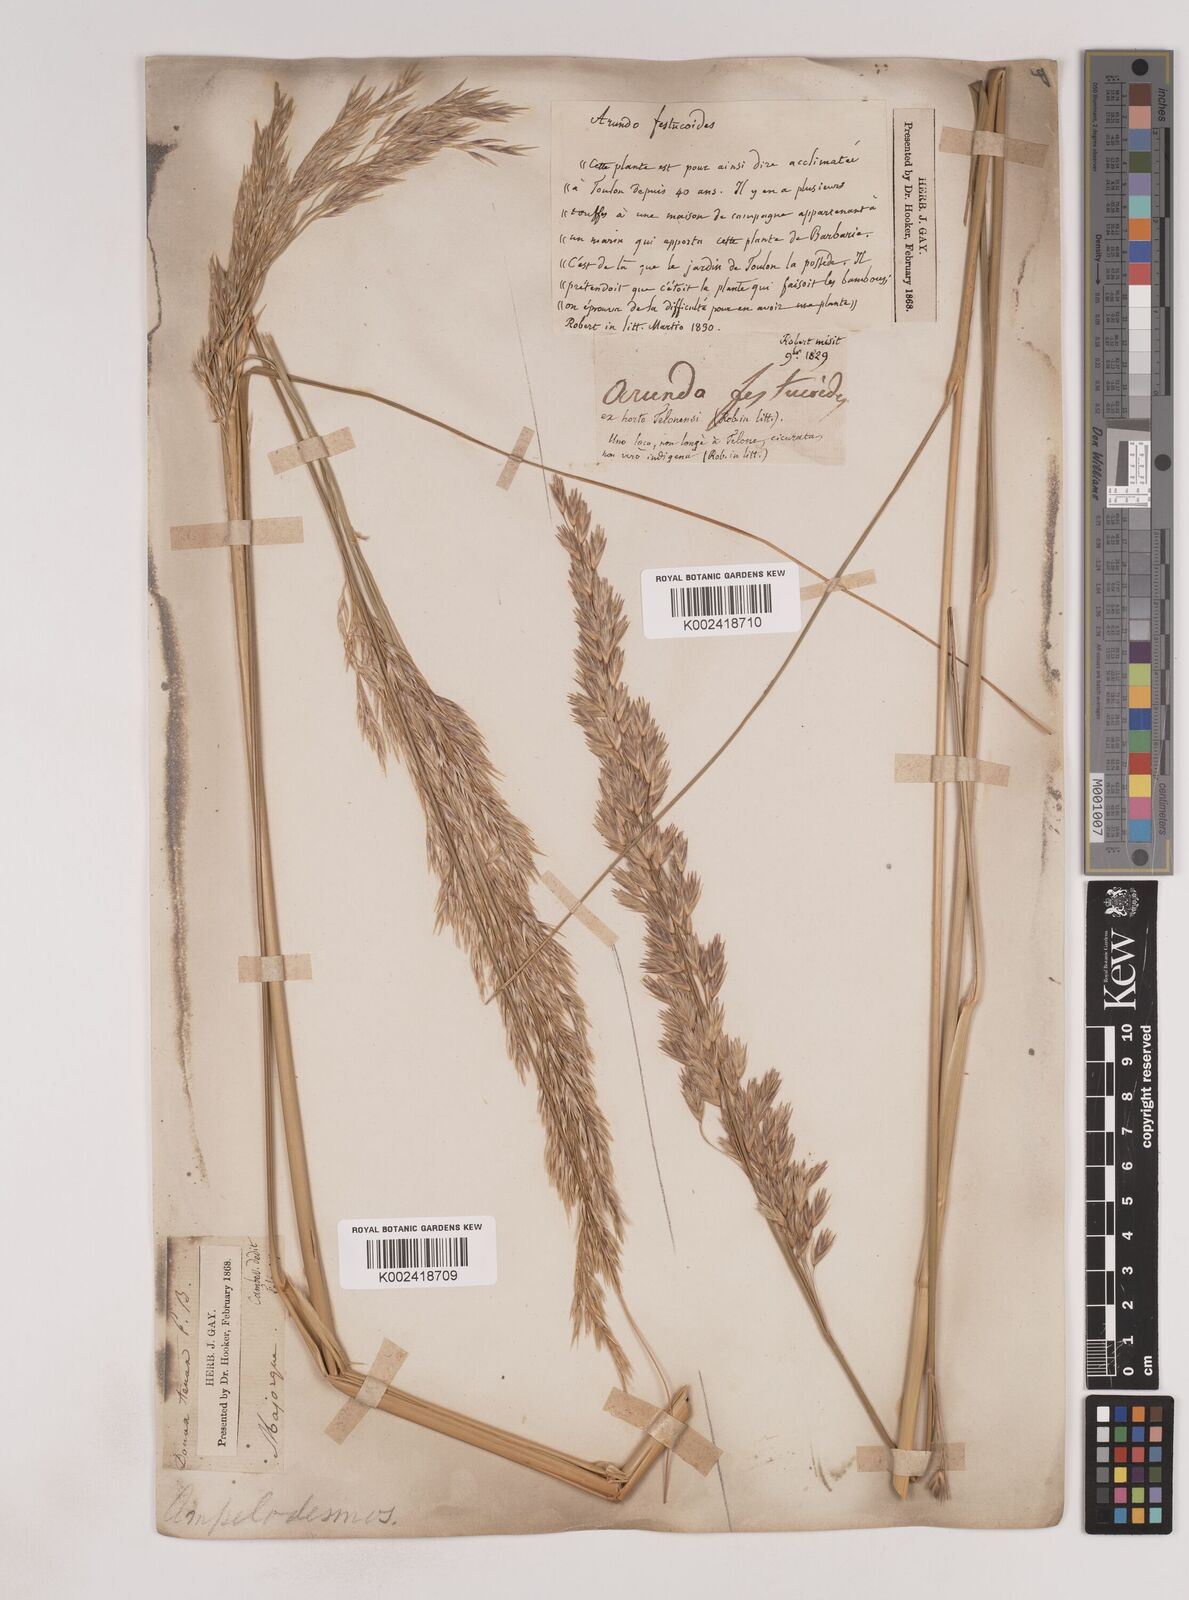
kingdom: Plantae
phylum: Tracheophyta
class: Liliopsida
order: Poales
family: Poaceae
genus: Ampelodesmos
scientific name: Ampelodesmos mauritanicus
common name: Mauritanian grass
